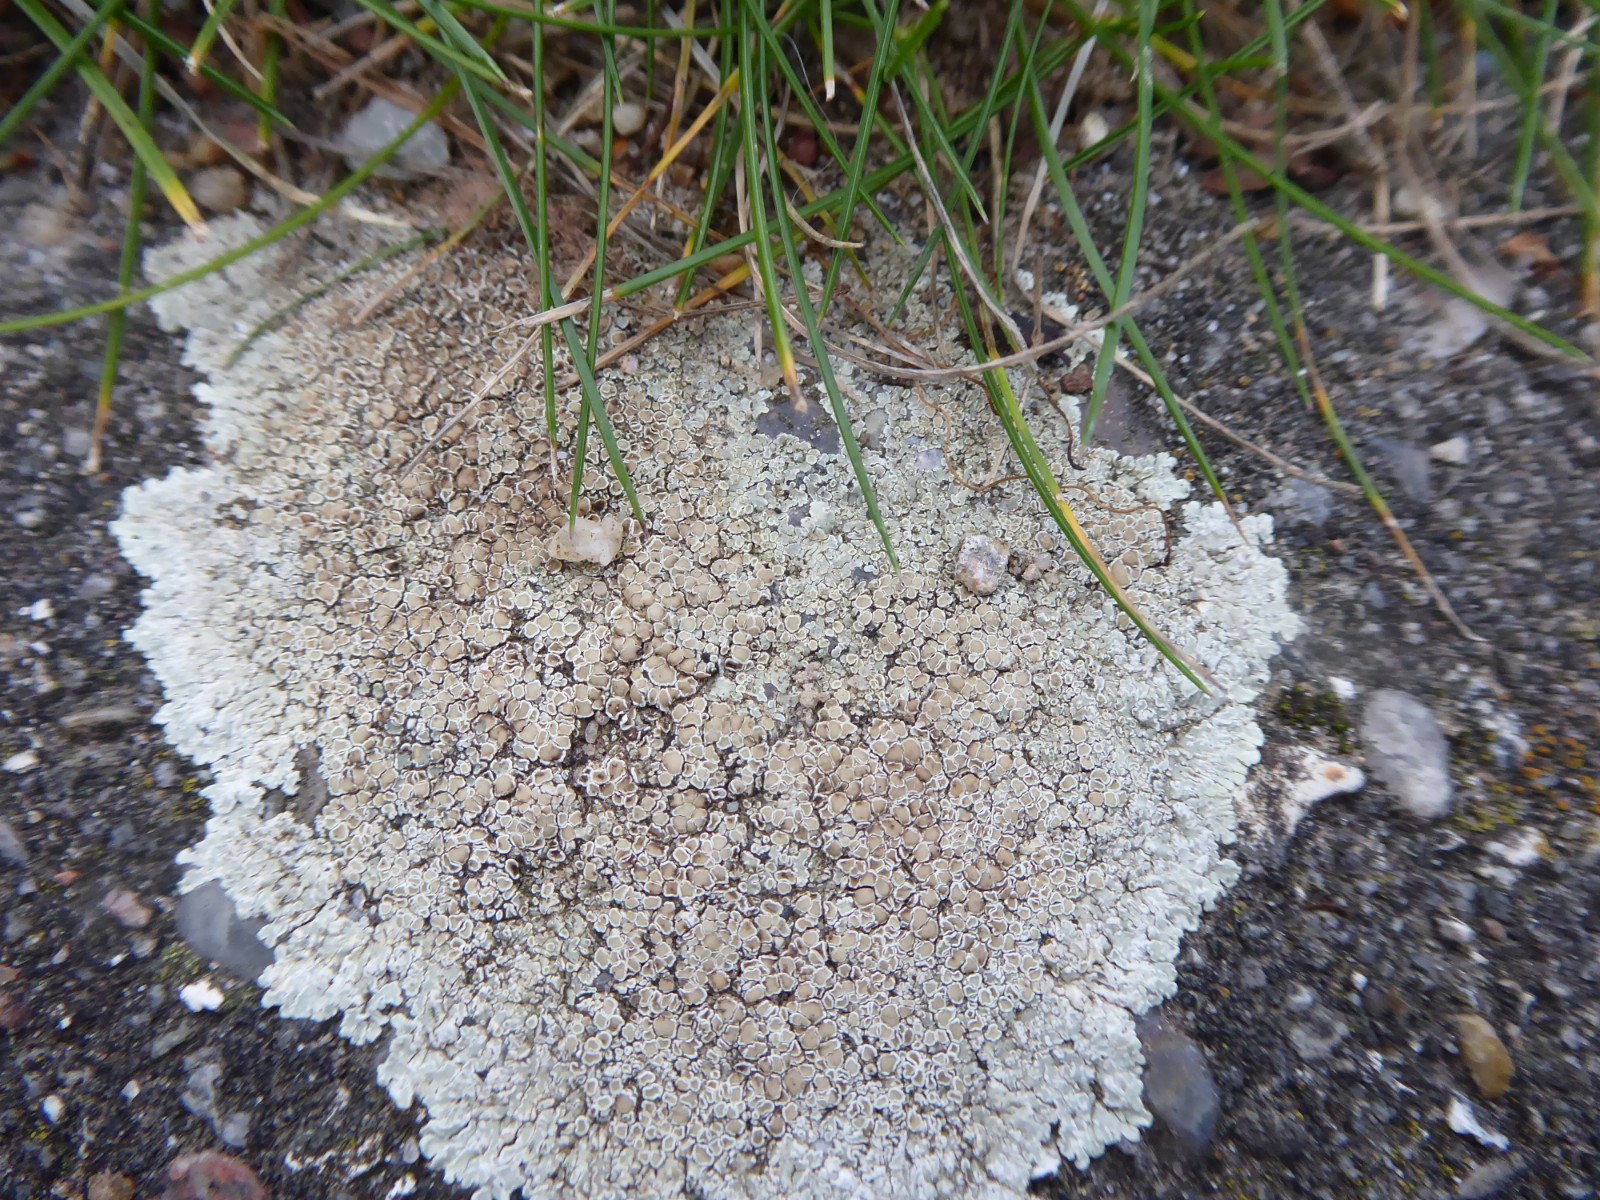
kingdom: Fungi
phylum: Ascomycota
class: Lecanoromycetes
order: Lecanorales
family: Lecanoraceae
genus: Protoparmeliopsis
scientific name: Protoparmeliopsis muralis
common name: randfliget kantskivelav
